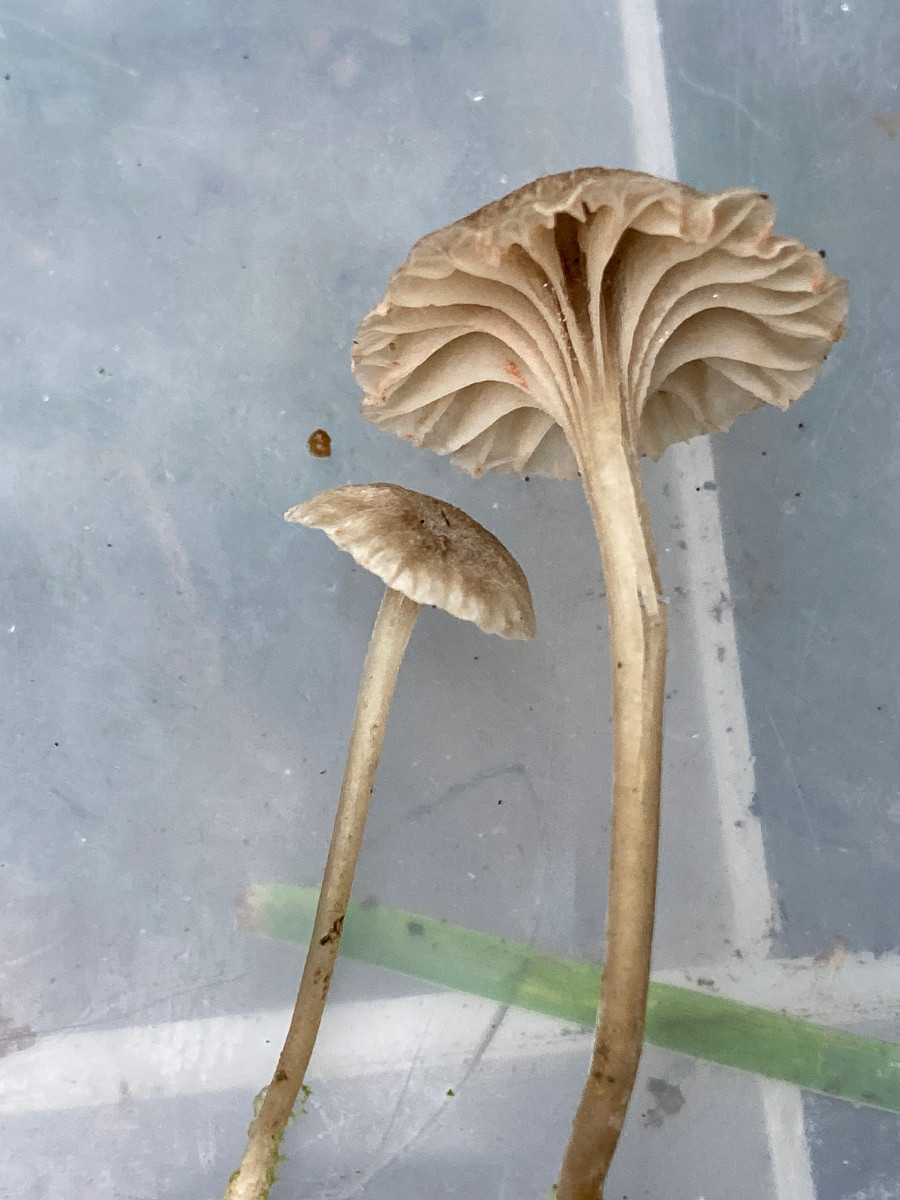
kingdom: Fungi
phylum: Basidiomycota
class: Agaricomycetes
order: Agaricales
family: Entolomataceae
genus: Entoloma
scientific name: Entoloma rhodocylix
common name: fjernbladet rødblad
